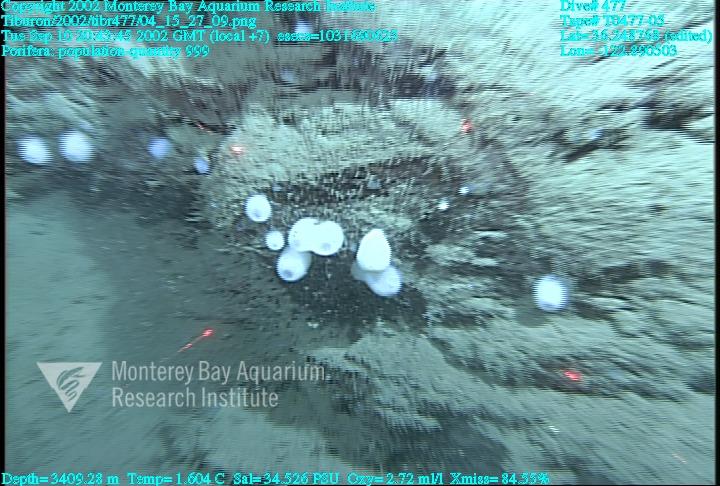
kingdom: Animalia
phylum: Porifera
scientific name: Porifera
